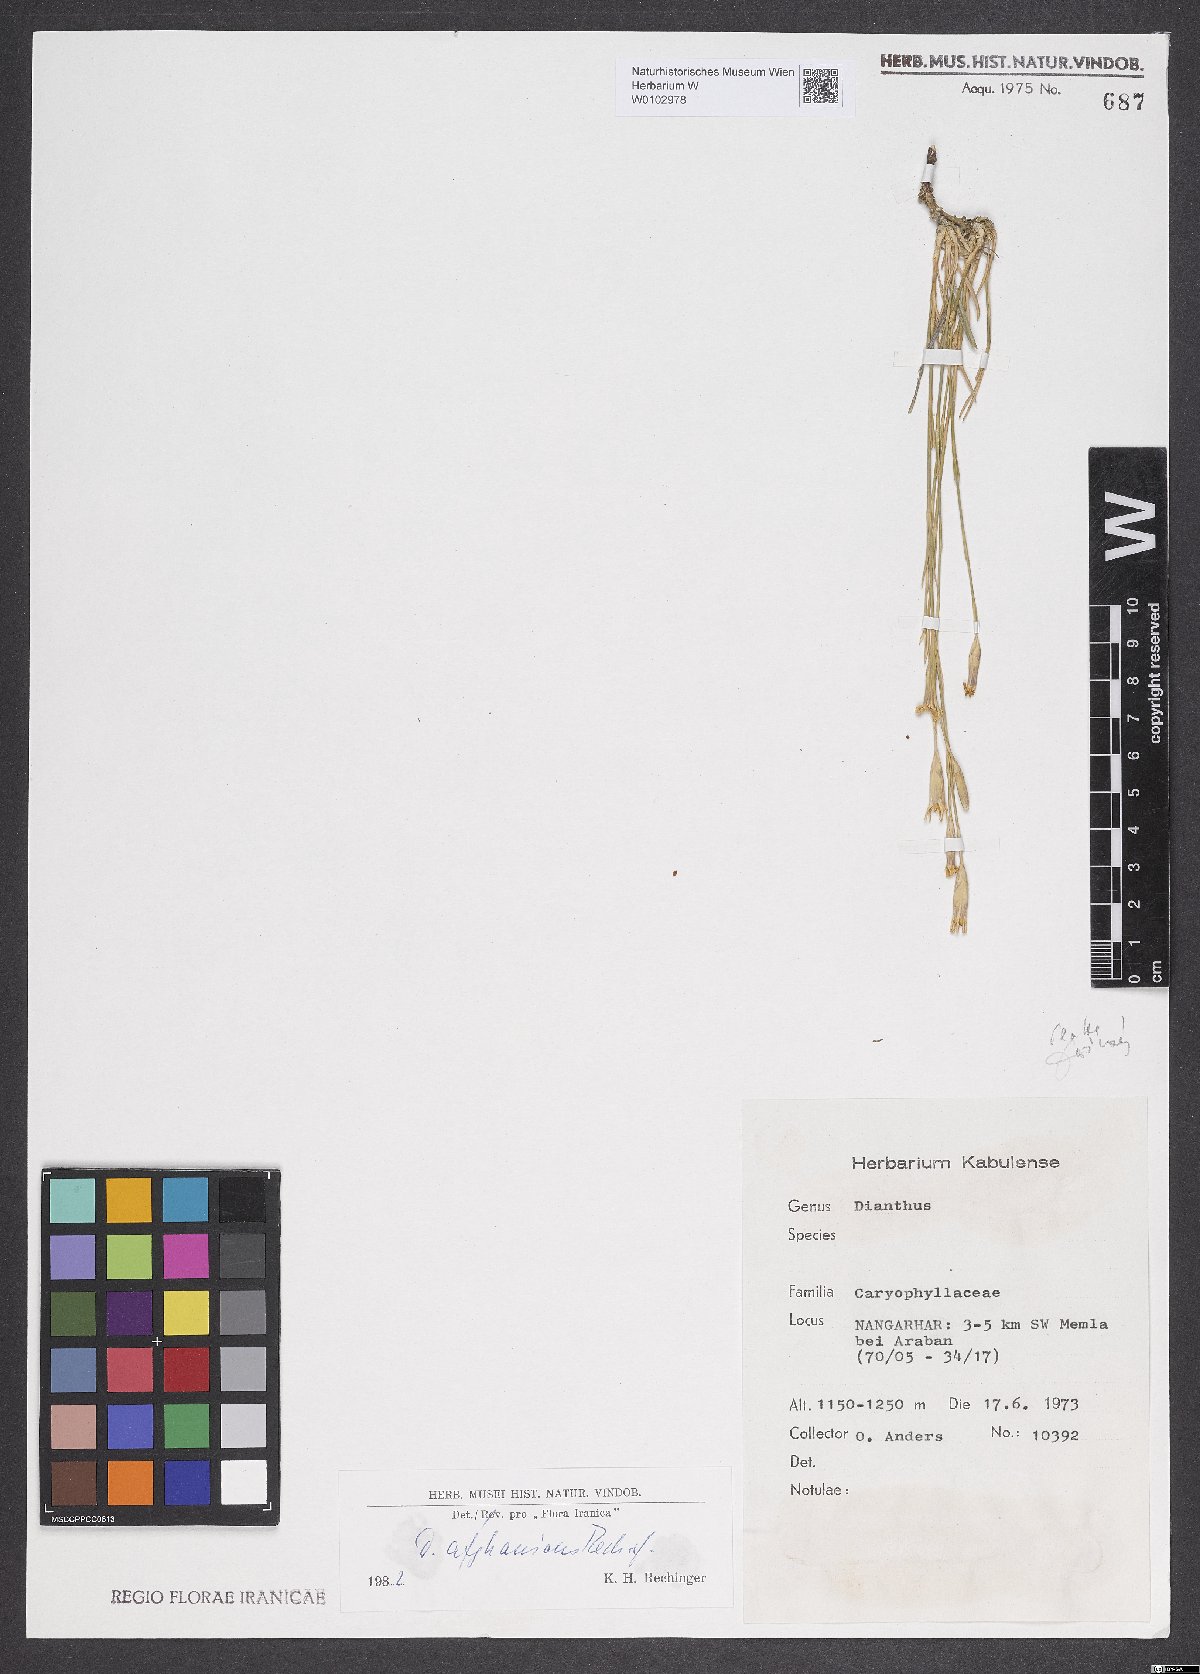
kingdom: Plantae
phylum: Tracheophyta
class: Magnoliopsida
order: Caryophyllales
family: Caryophyllaceae
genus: Dianthus
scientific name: Dianthus afghanicus
